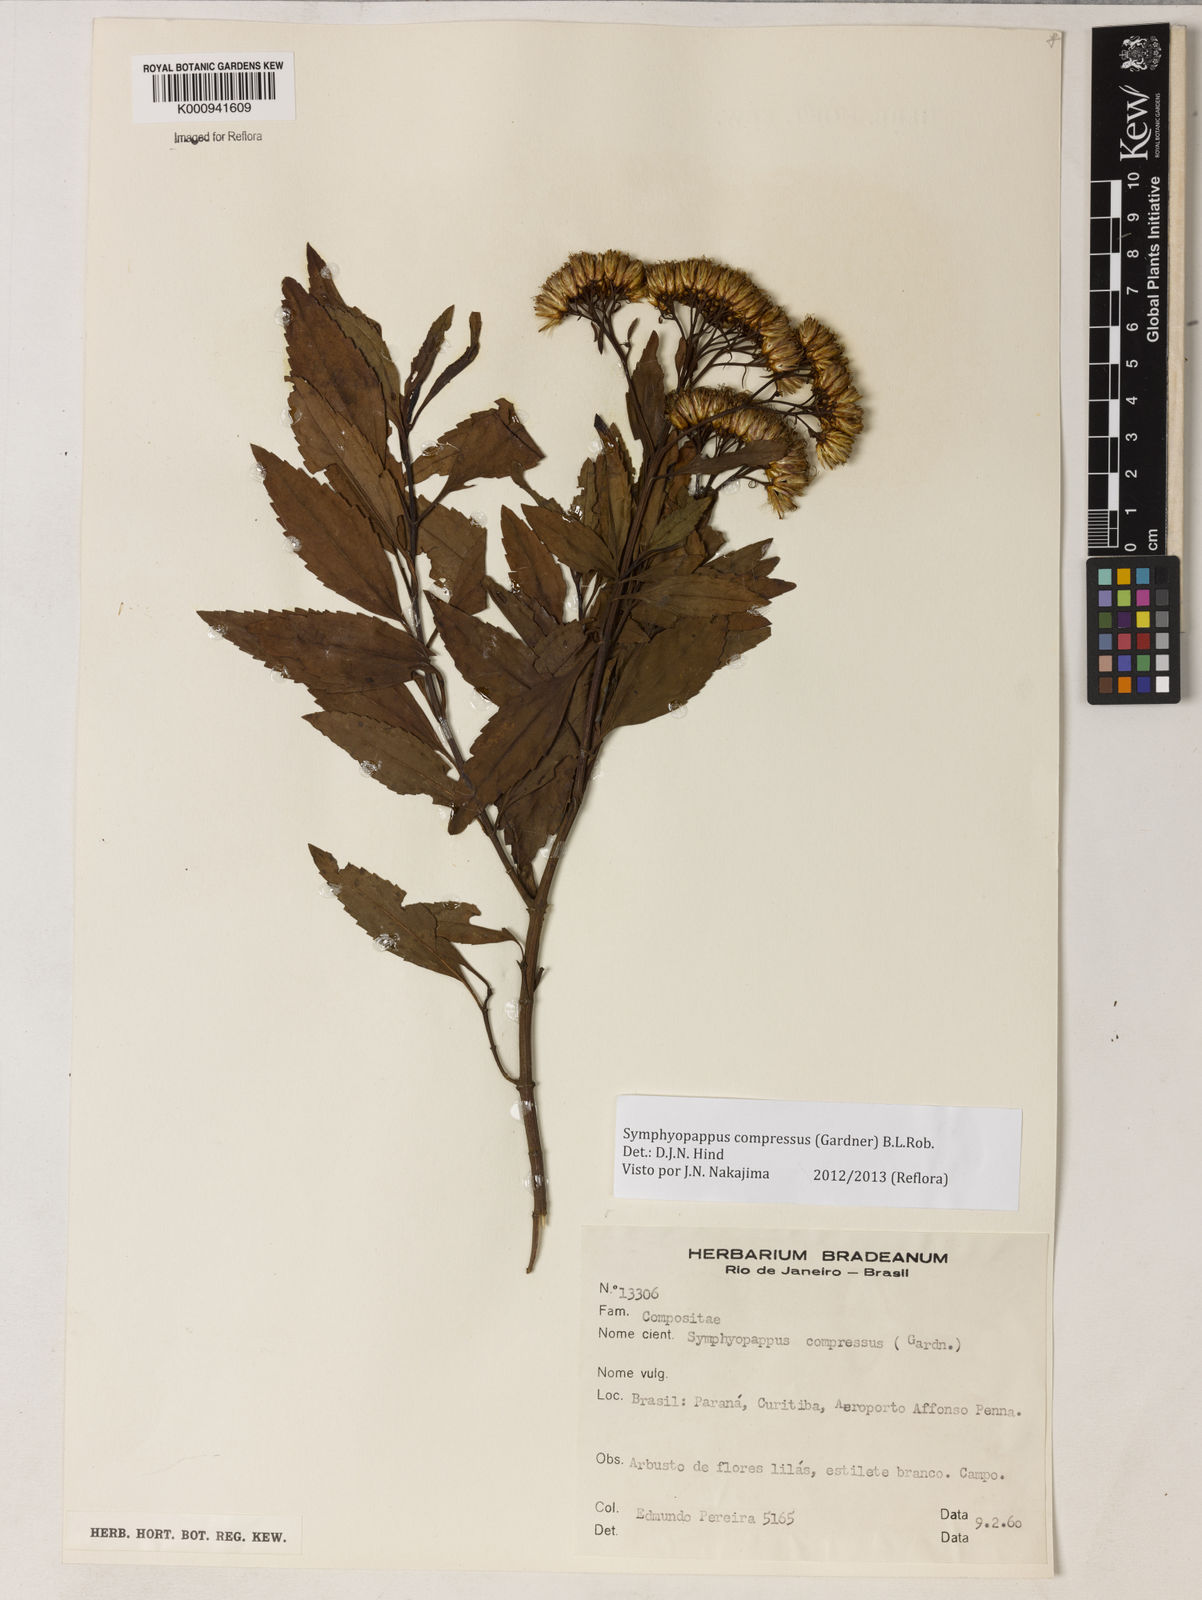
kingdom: Plantae
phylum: Tracheophyta
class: Magnoliopsida
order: Asterales
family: Asteraceae
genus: Symphyopappus
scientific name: Symphyopappus compressus
